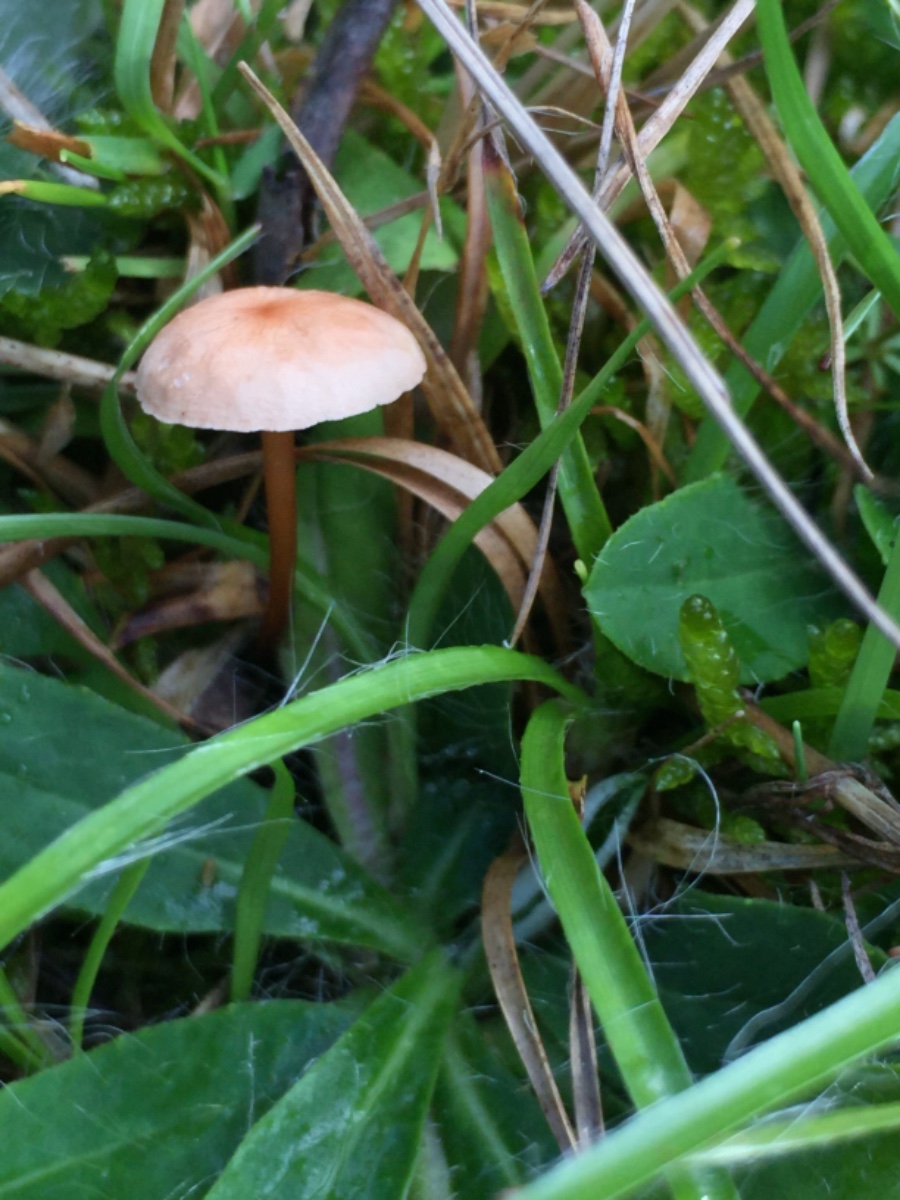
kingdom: Fungi
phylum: Basidiomycota
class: Agaricomycetes
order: Agaricales
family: Omphalotaceae
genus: Mycetinis
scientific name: Mycetinis scorodonius
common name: lille løghat
